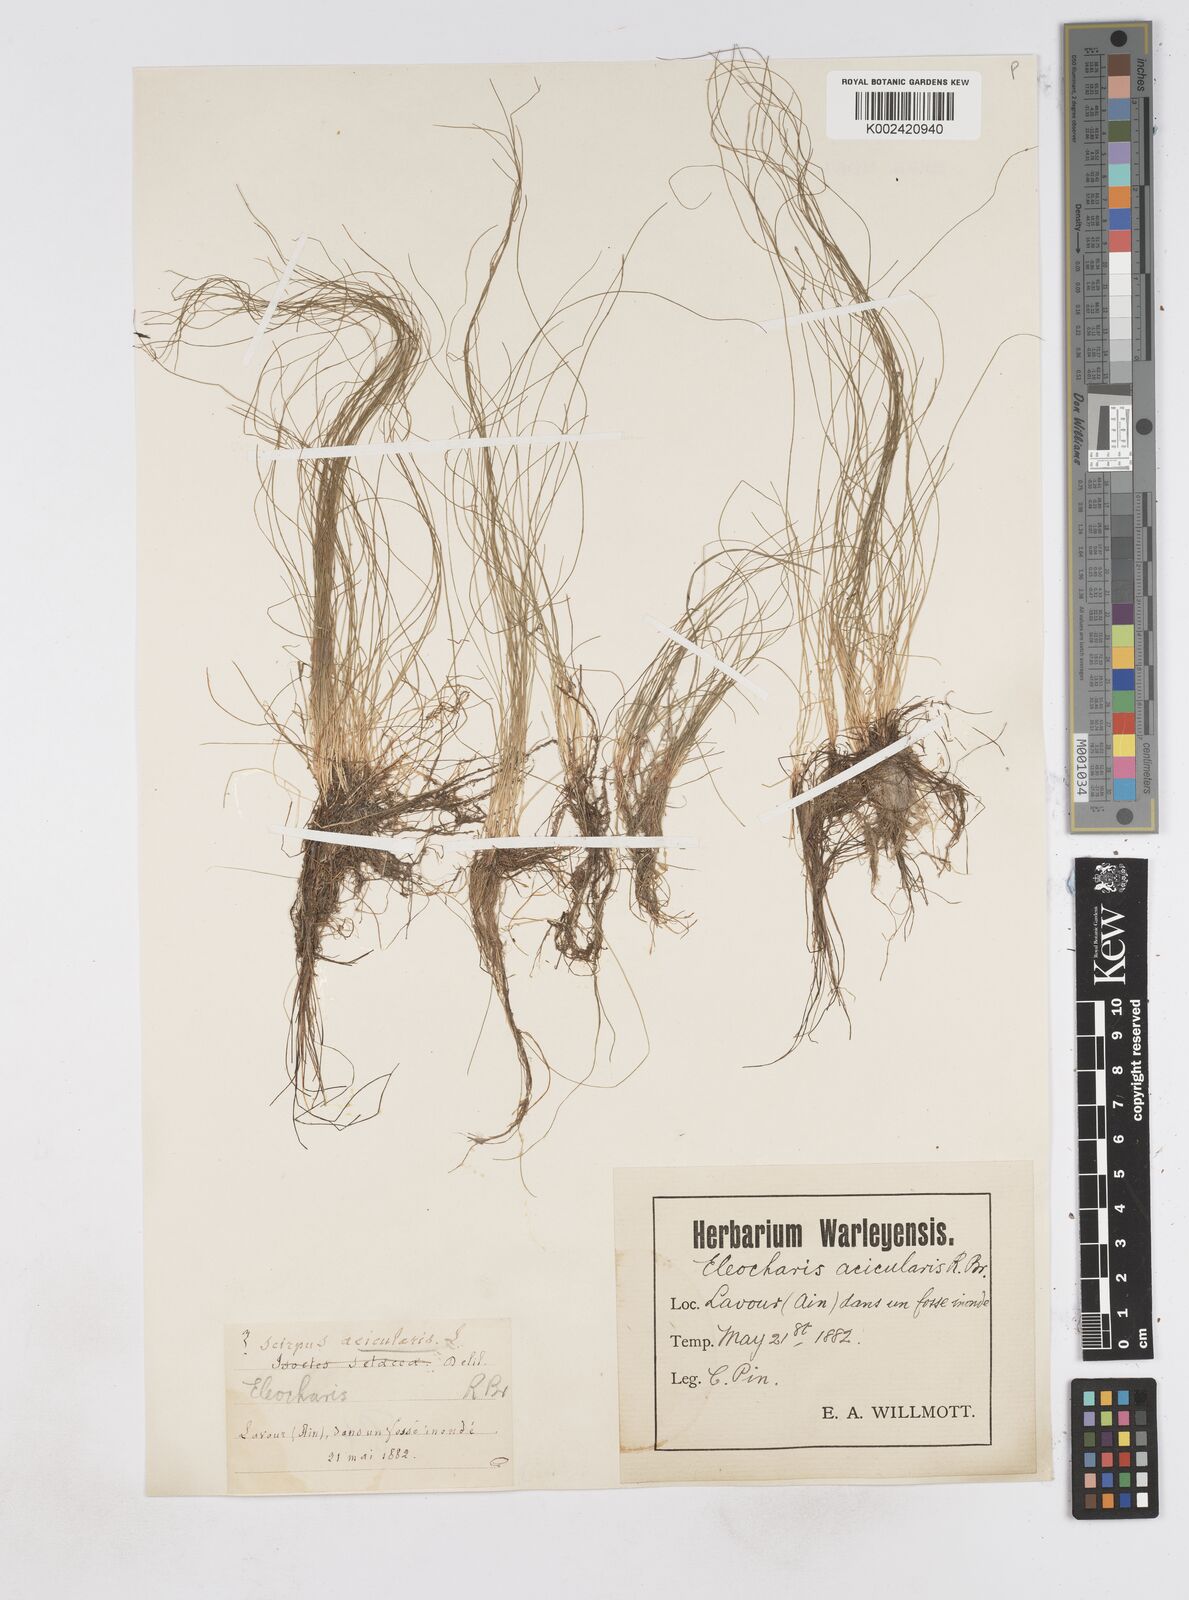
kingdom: Plantae
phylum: Tracheophyta
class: Liliopsida
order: Poales
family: Cyperaceae
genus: Eleocharis
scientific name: Eleocharis acicularis
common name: Needle spike-rush
